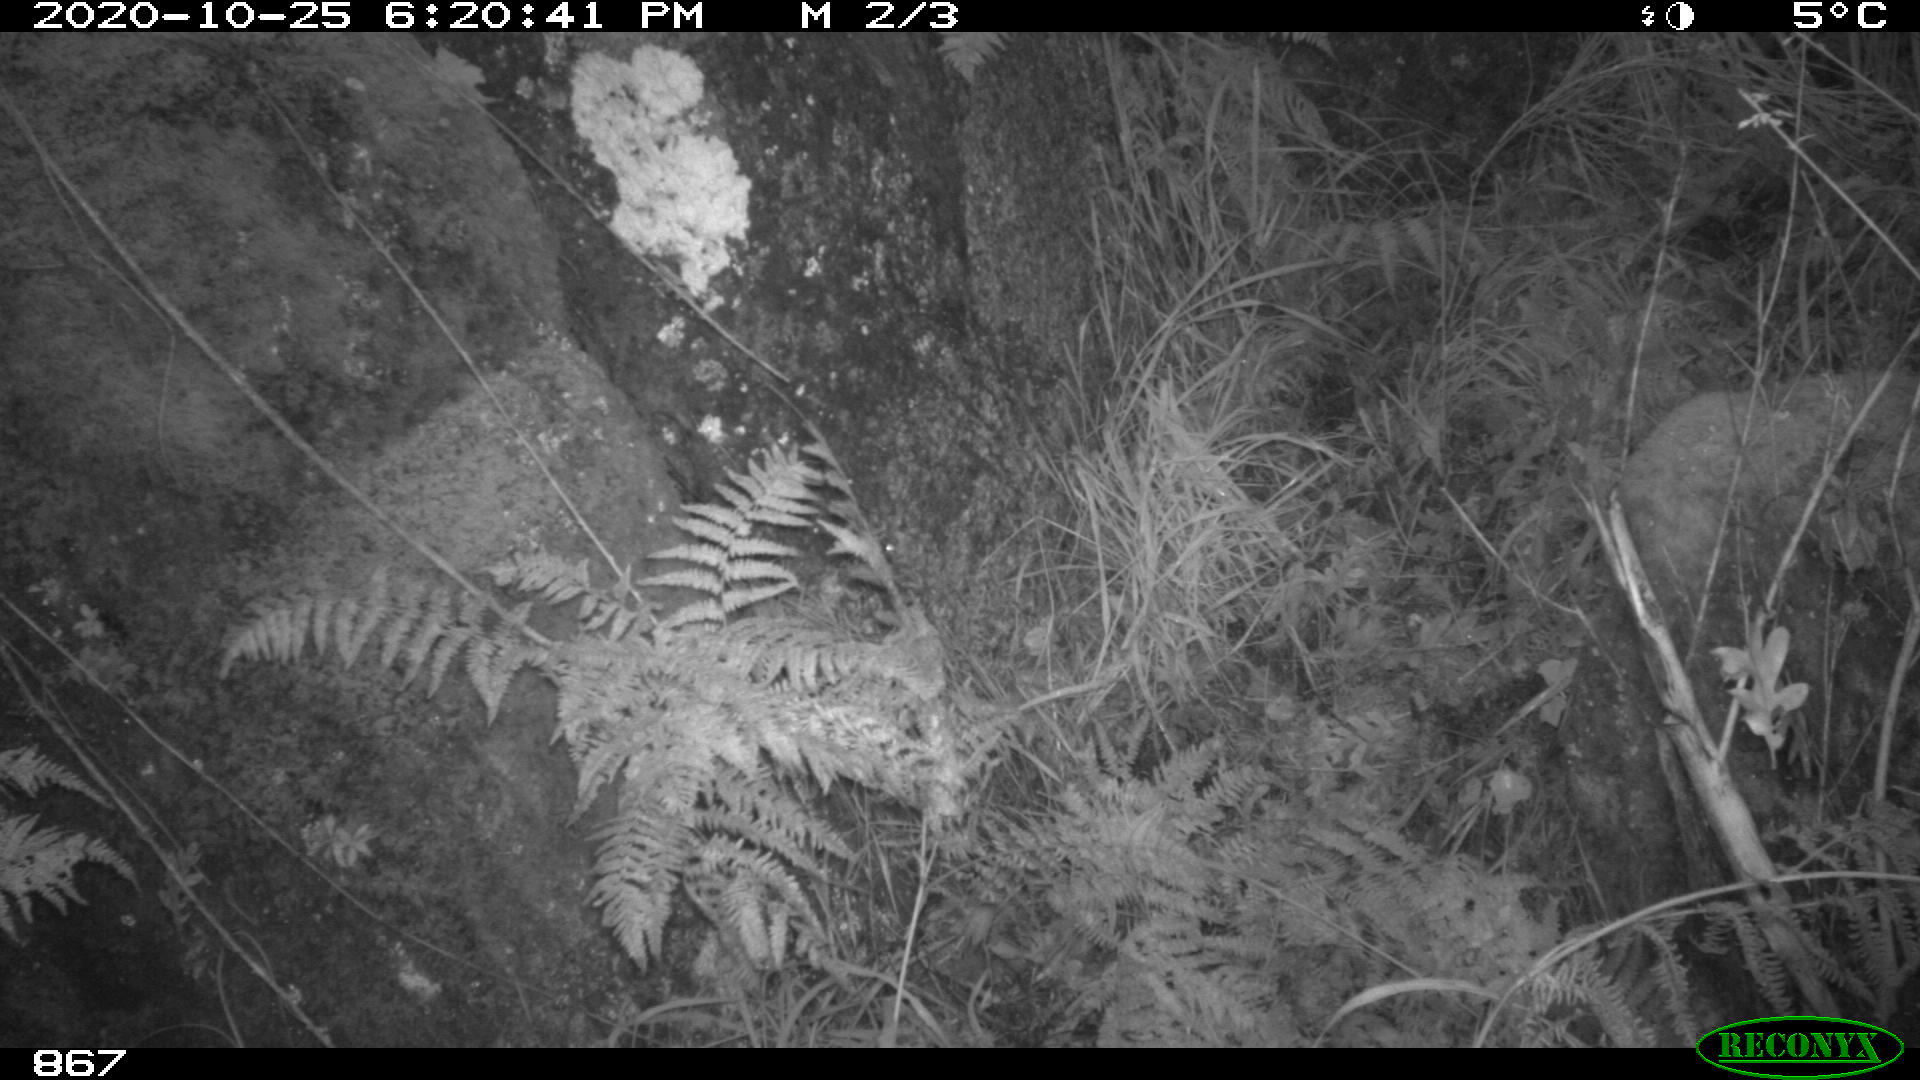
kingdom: Animalia
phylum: Chordata
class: Mammalia
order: Artiodactyla
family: Suidae
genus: Sus
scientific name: Sus scrofa
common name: Wild boar
